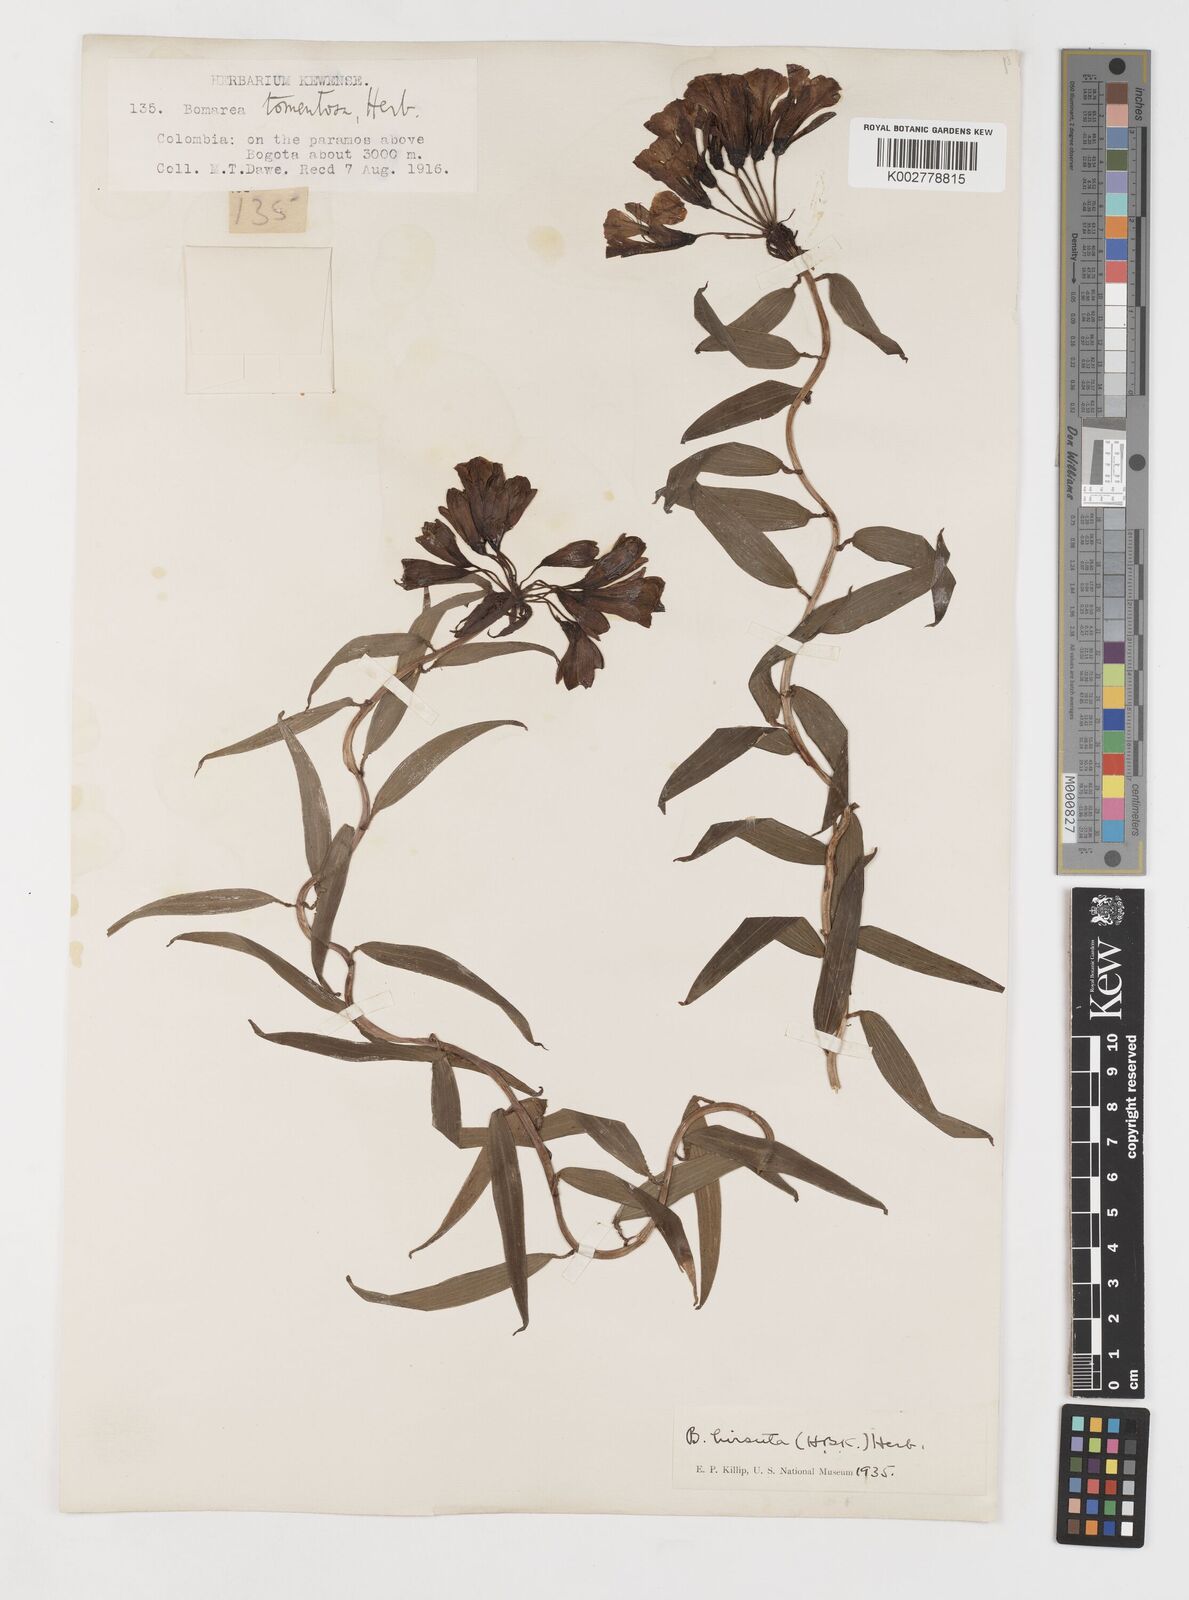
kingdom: Plantae
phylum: Tracheophyta
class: Liliopsida
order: Liliales
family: Alstroemeriaceae
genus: Bomarea
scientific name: Bomarea hirsuta
